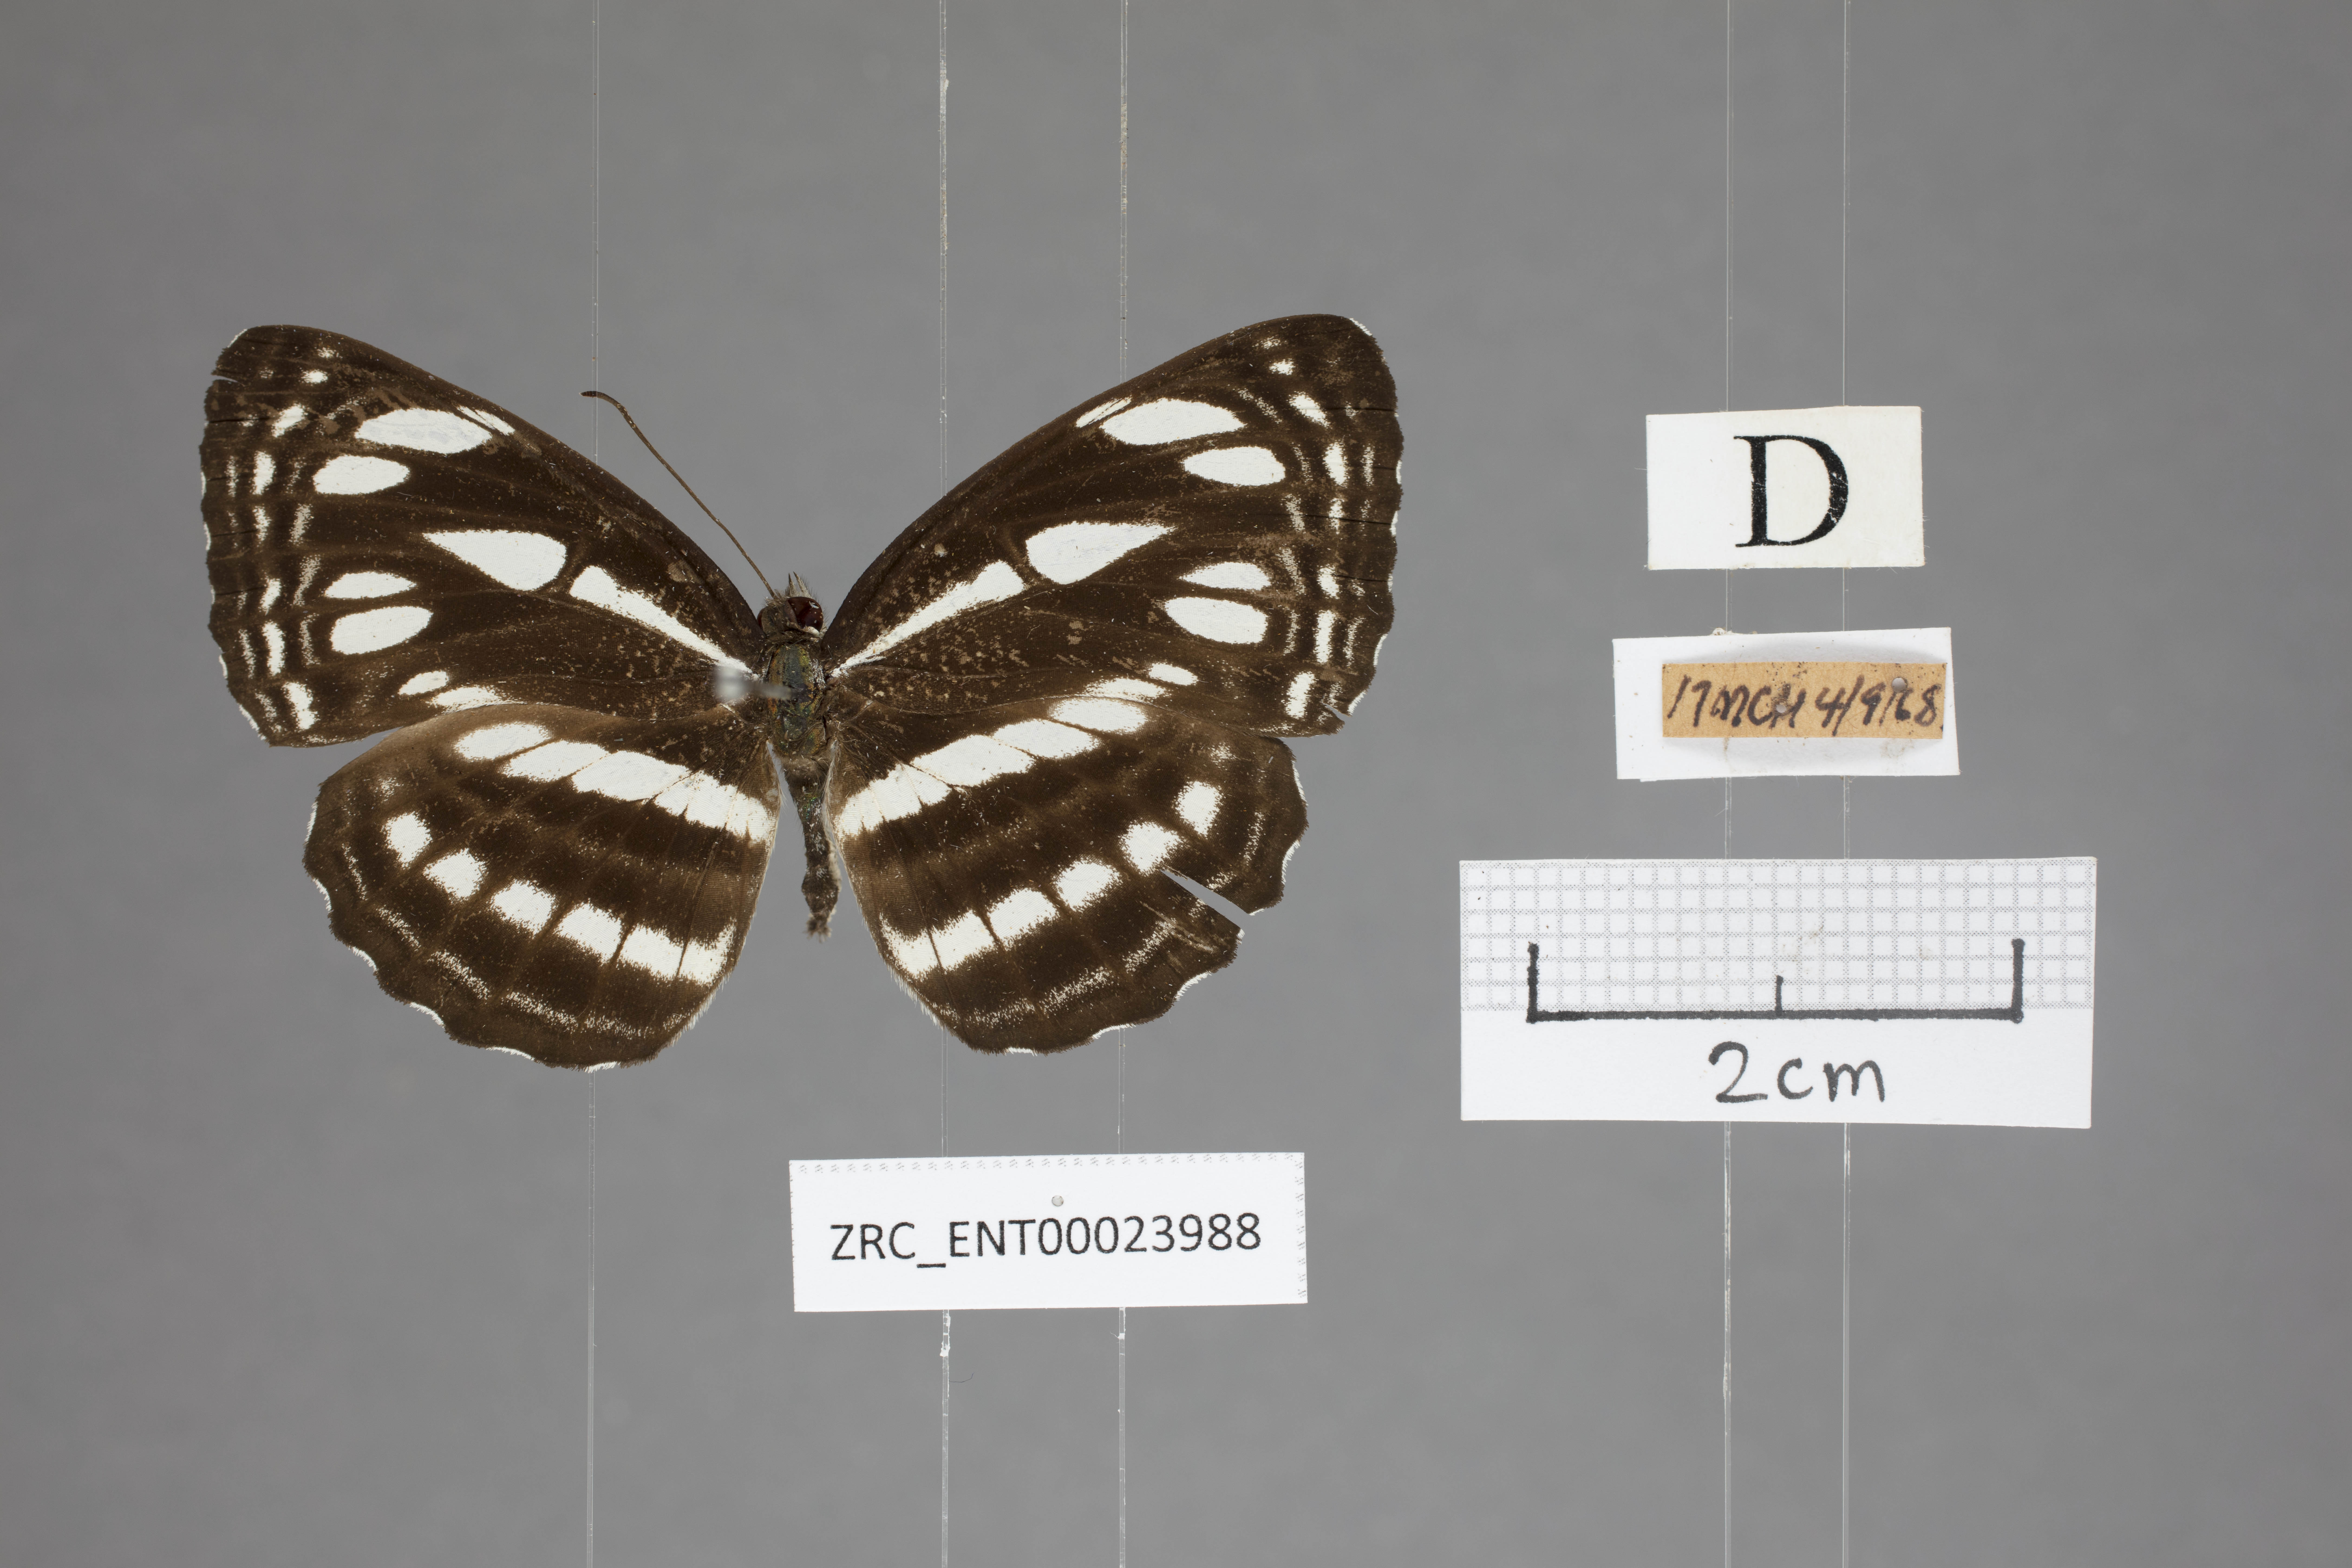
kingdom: Animalia
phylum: Arthropoda
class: Insecta
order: Lepidoptera
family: Nymphalidae
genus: Neptis
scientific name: Neptis duryodana
